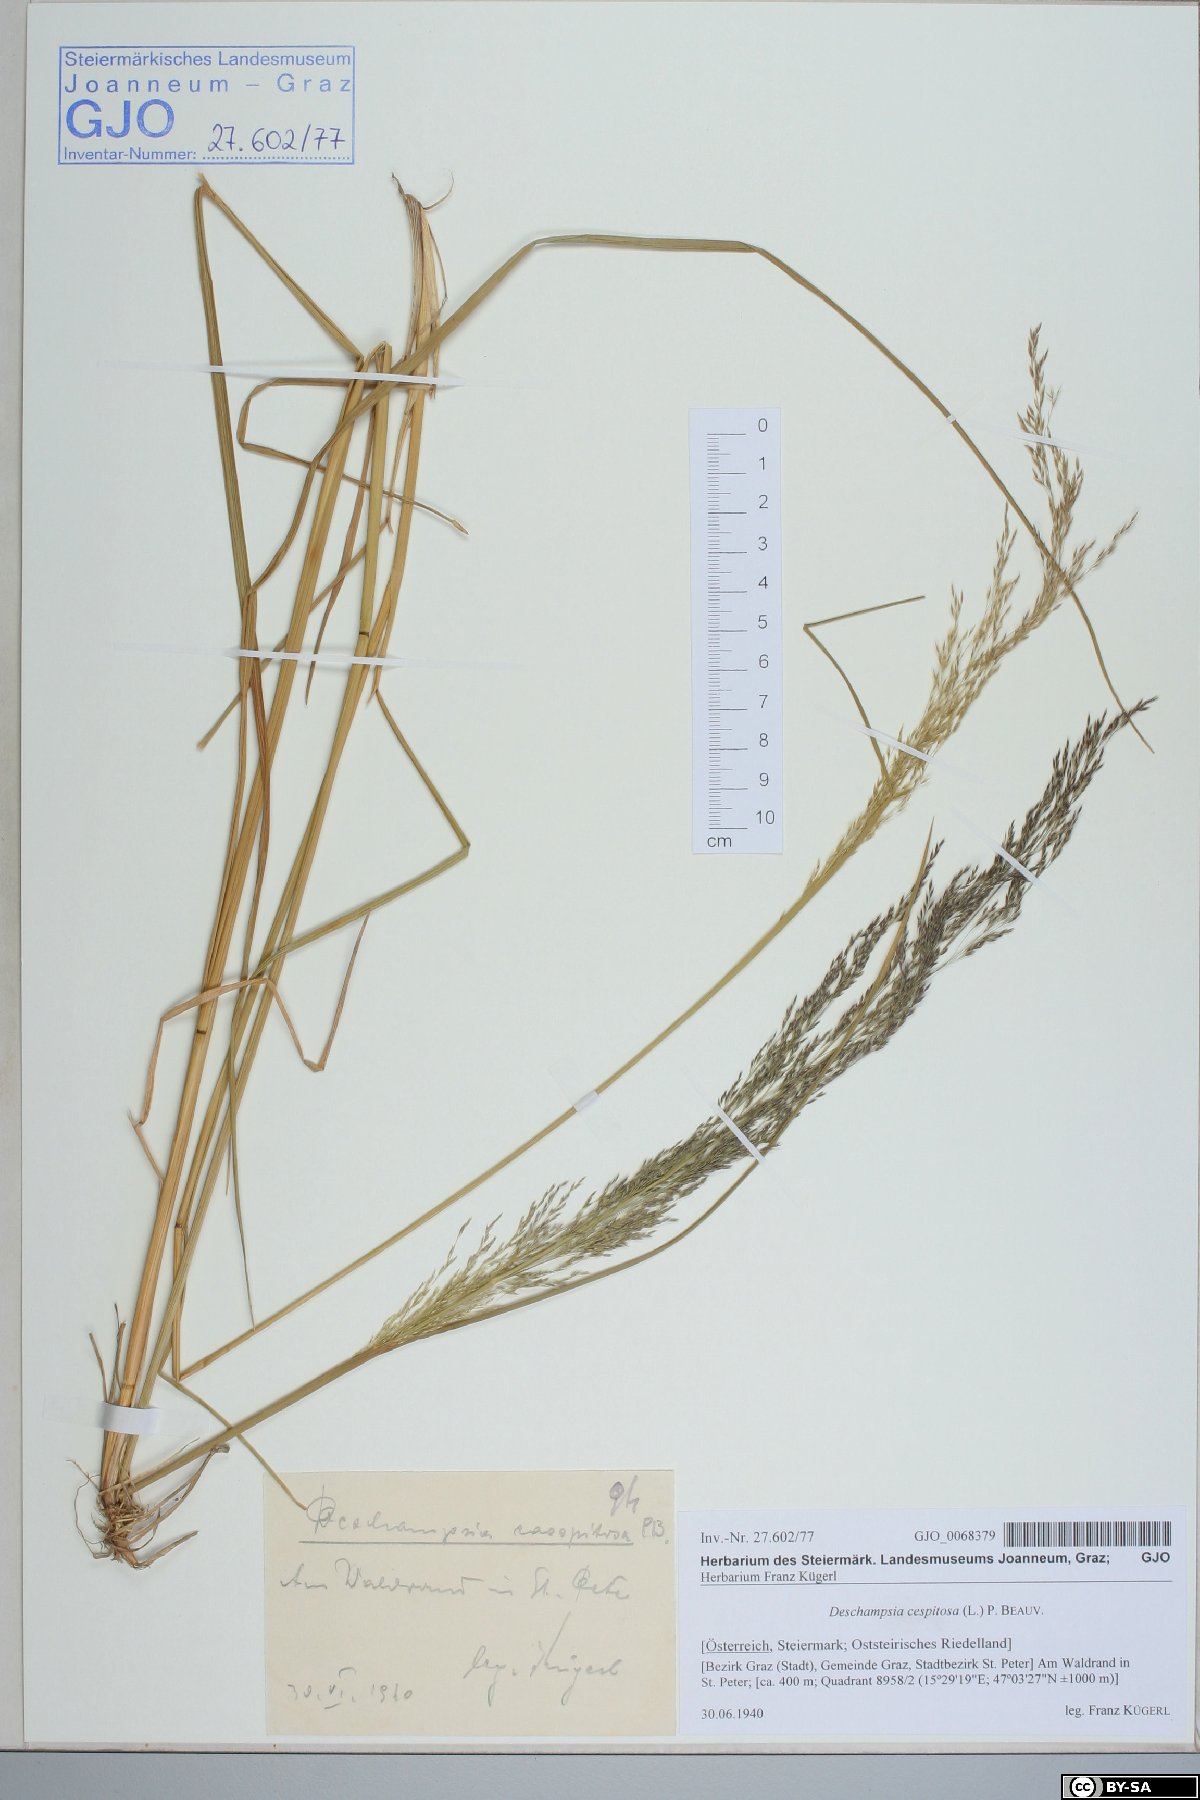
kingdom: Plantae
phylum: Tracheophyta
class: Liliopsida
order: Poales
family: Poaceae
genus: Deschampsia
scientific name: Deschampsia cespitosa
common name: Tufted hair-grass
